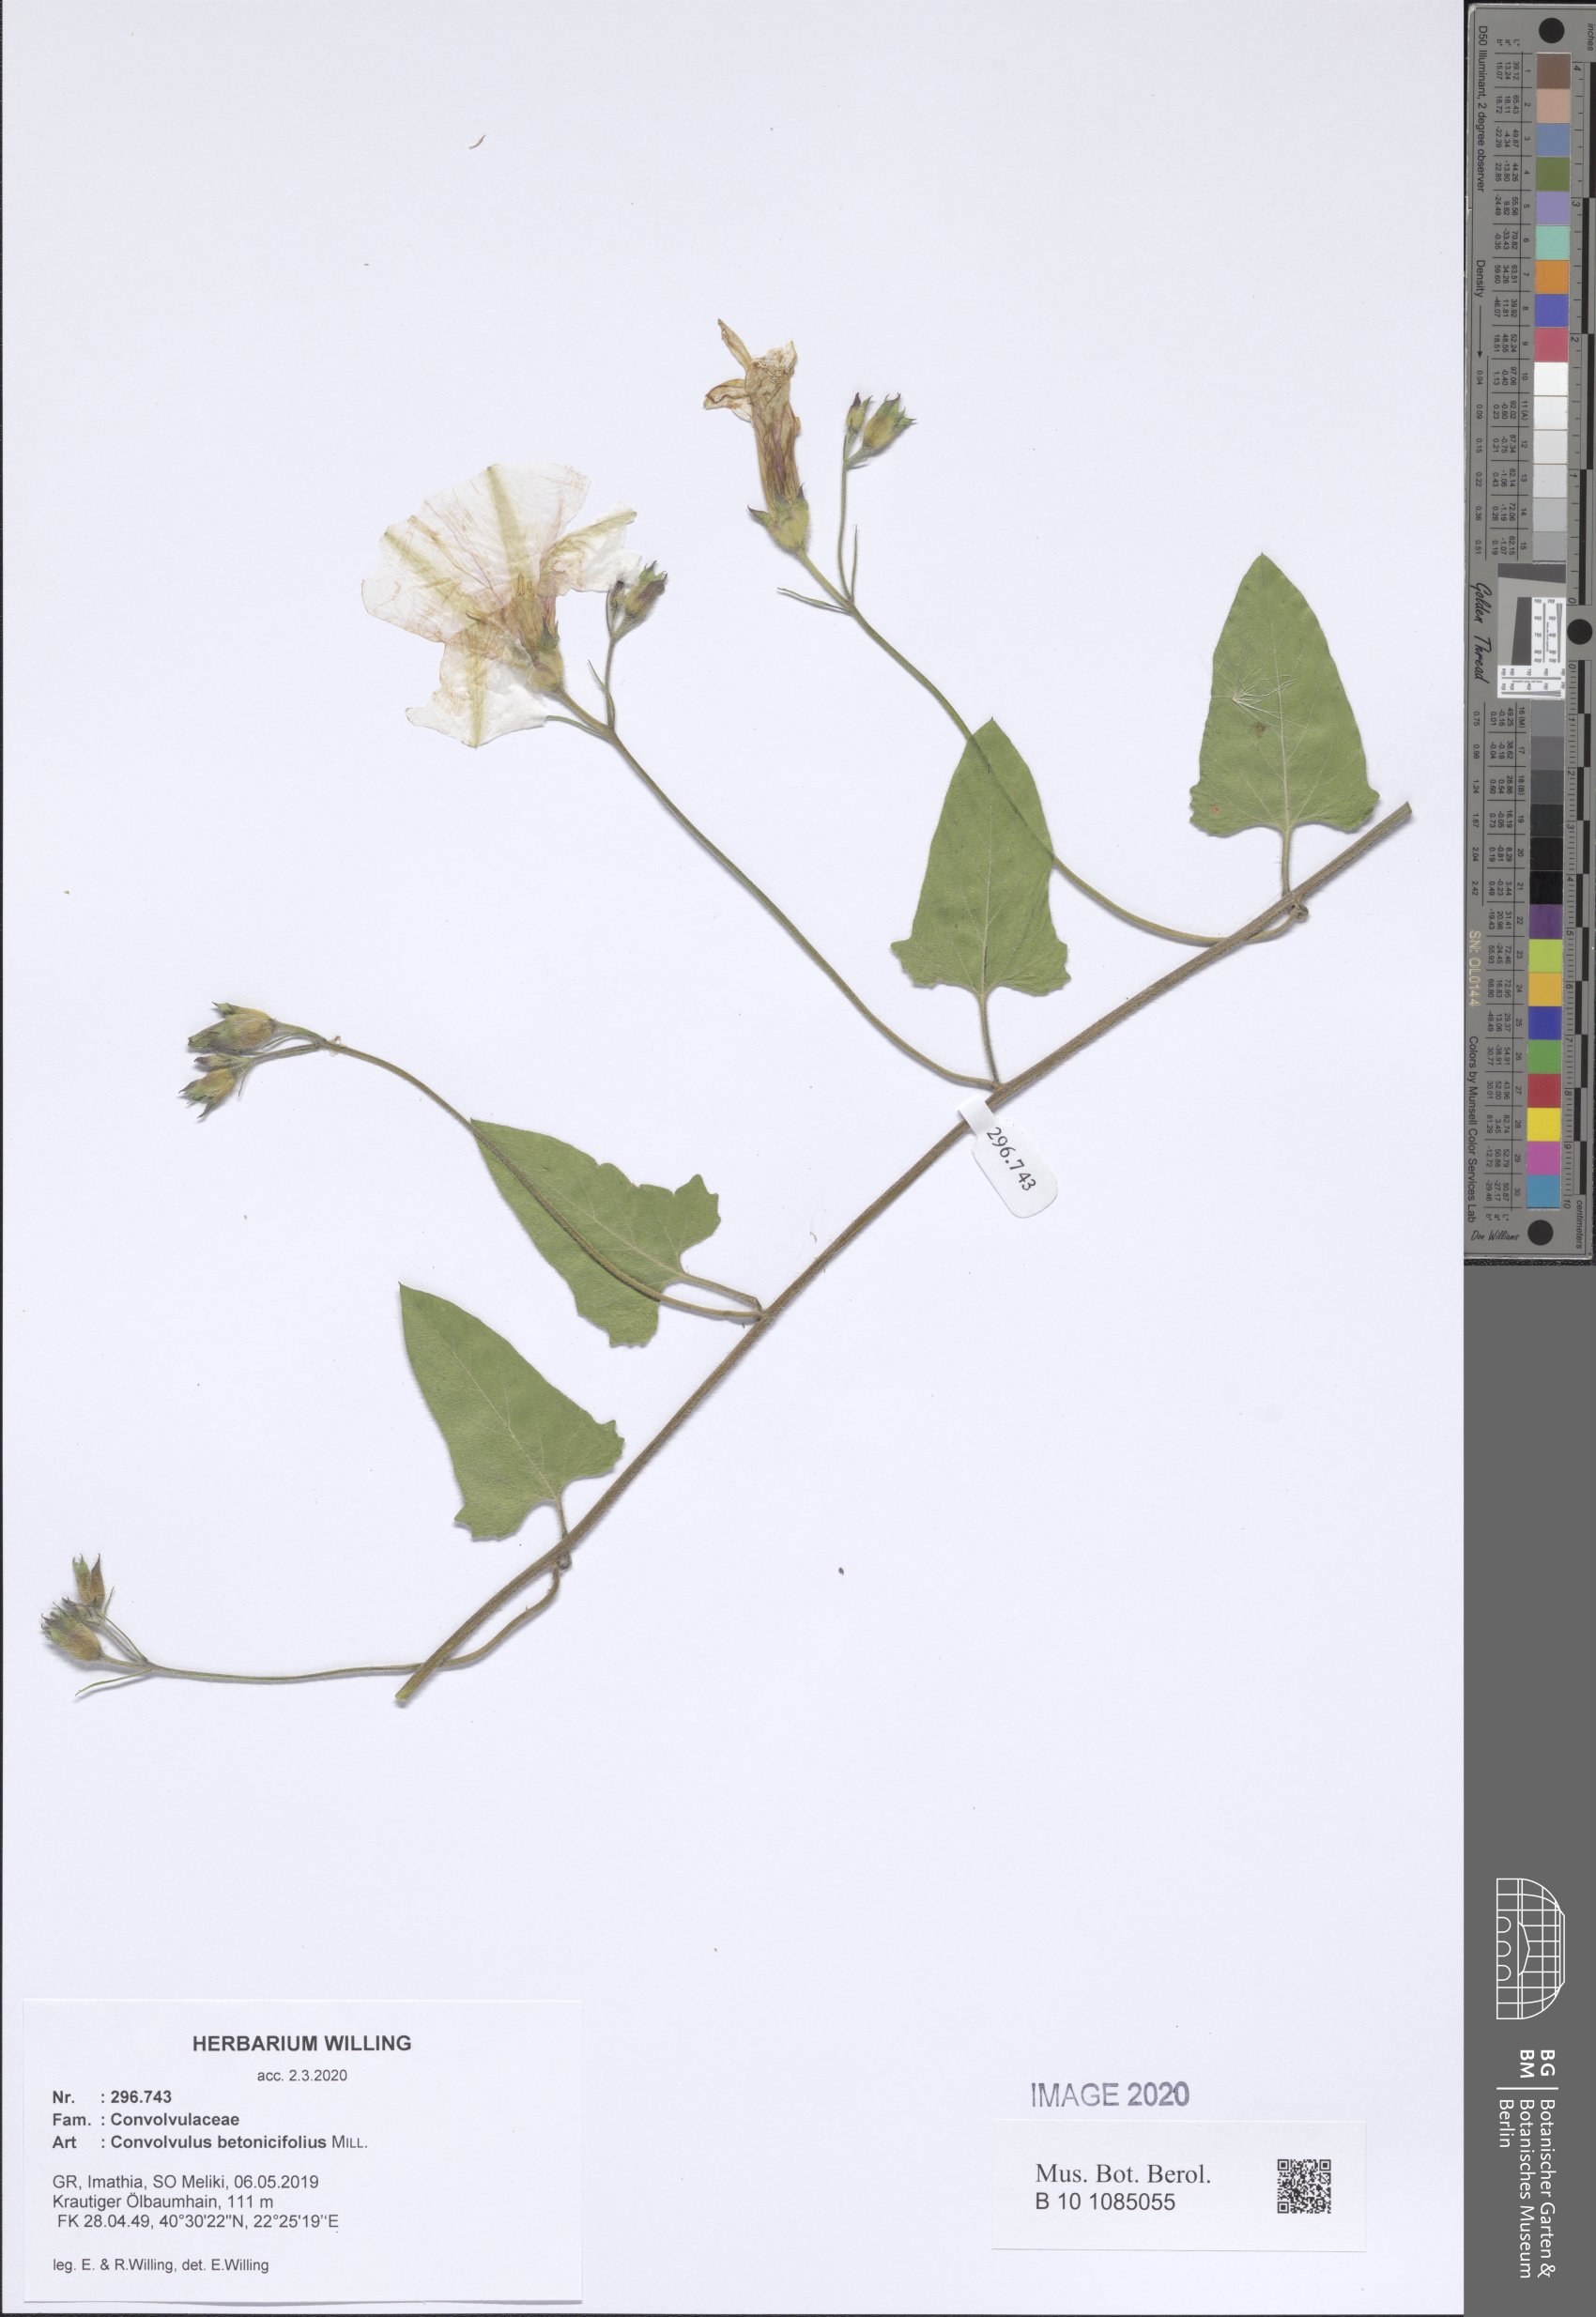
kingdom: Plantae
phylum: Tracheophyta
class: Magnoliopsida
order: Solanales
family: Convolvulaceae
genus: Convolvulus
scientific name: Convolvulus betonicifolius
